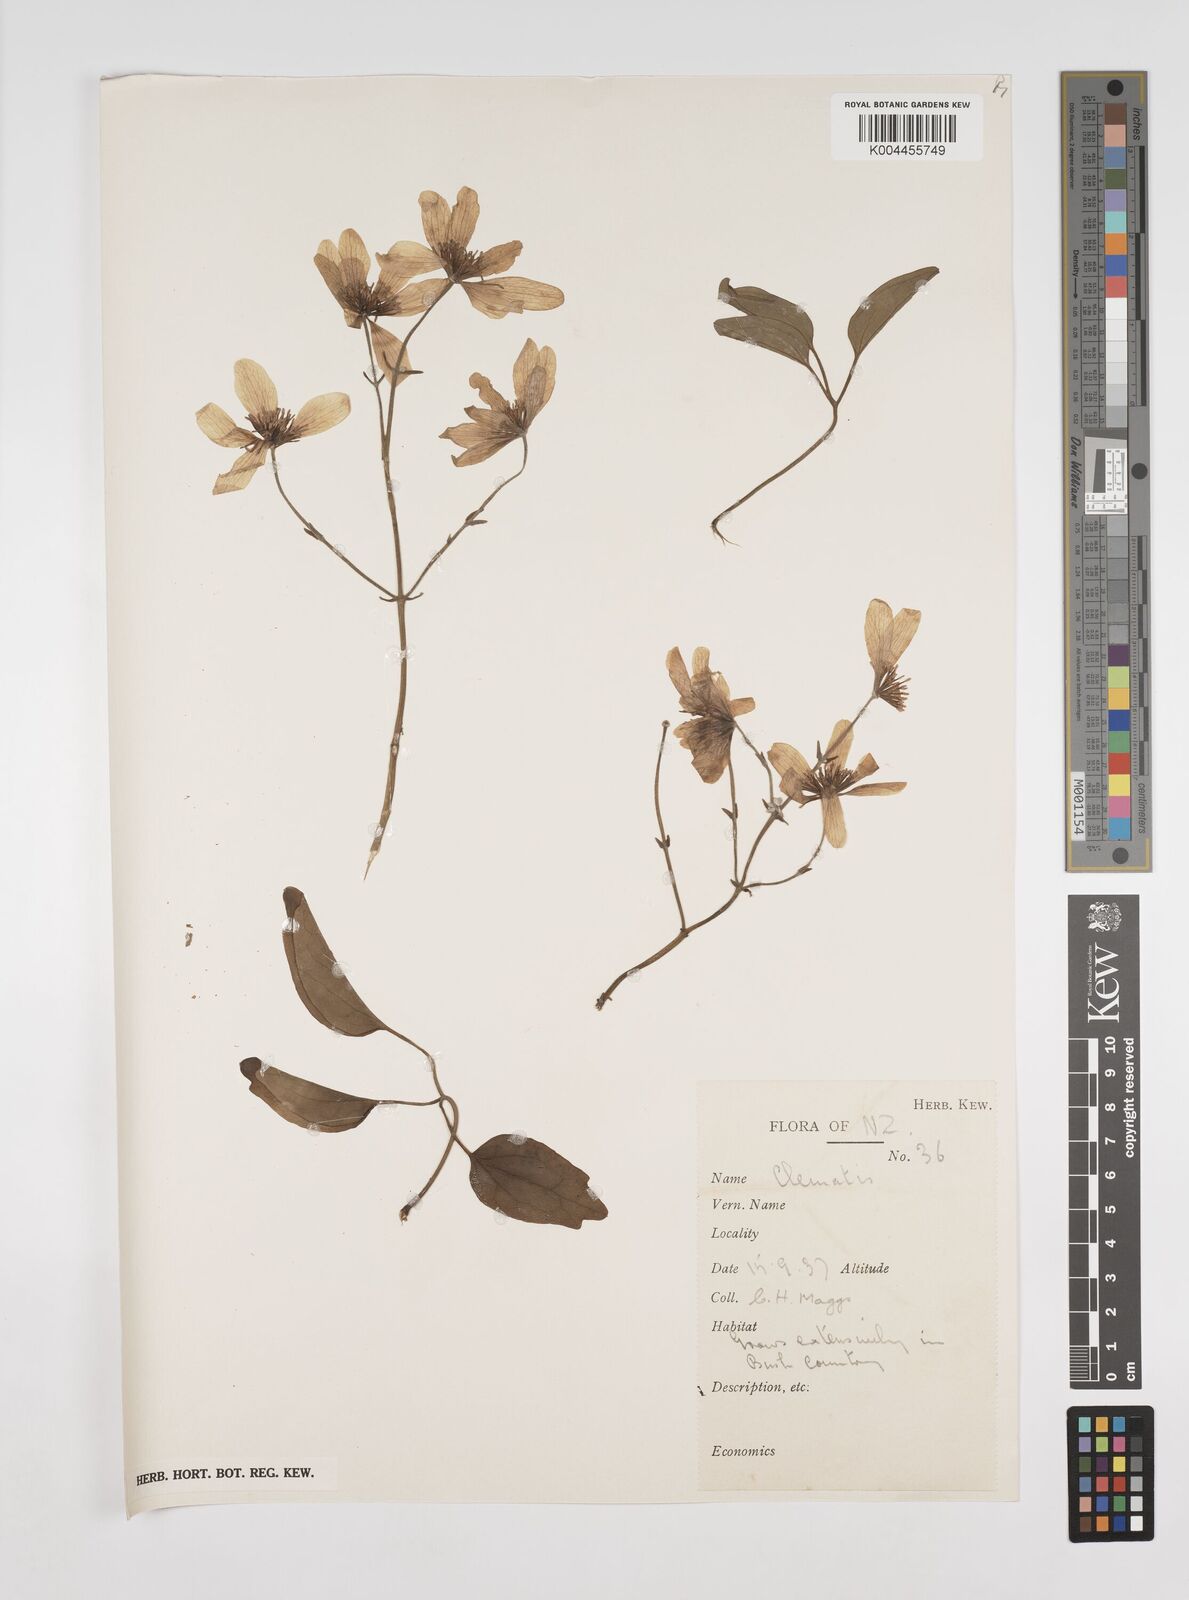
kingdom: Plantae
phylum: Tracheophyta
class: Magnoliopsida
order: Ranunculales
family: Ranunculaceae
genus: Clematis
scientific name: Clematis
